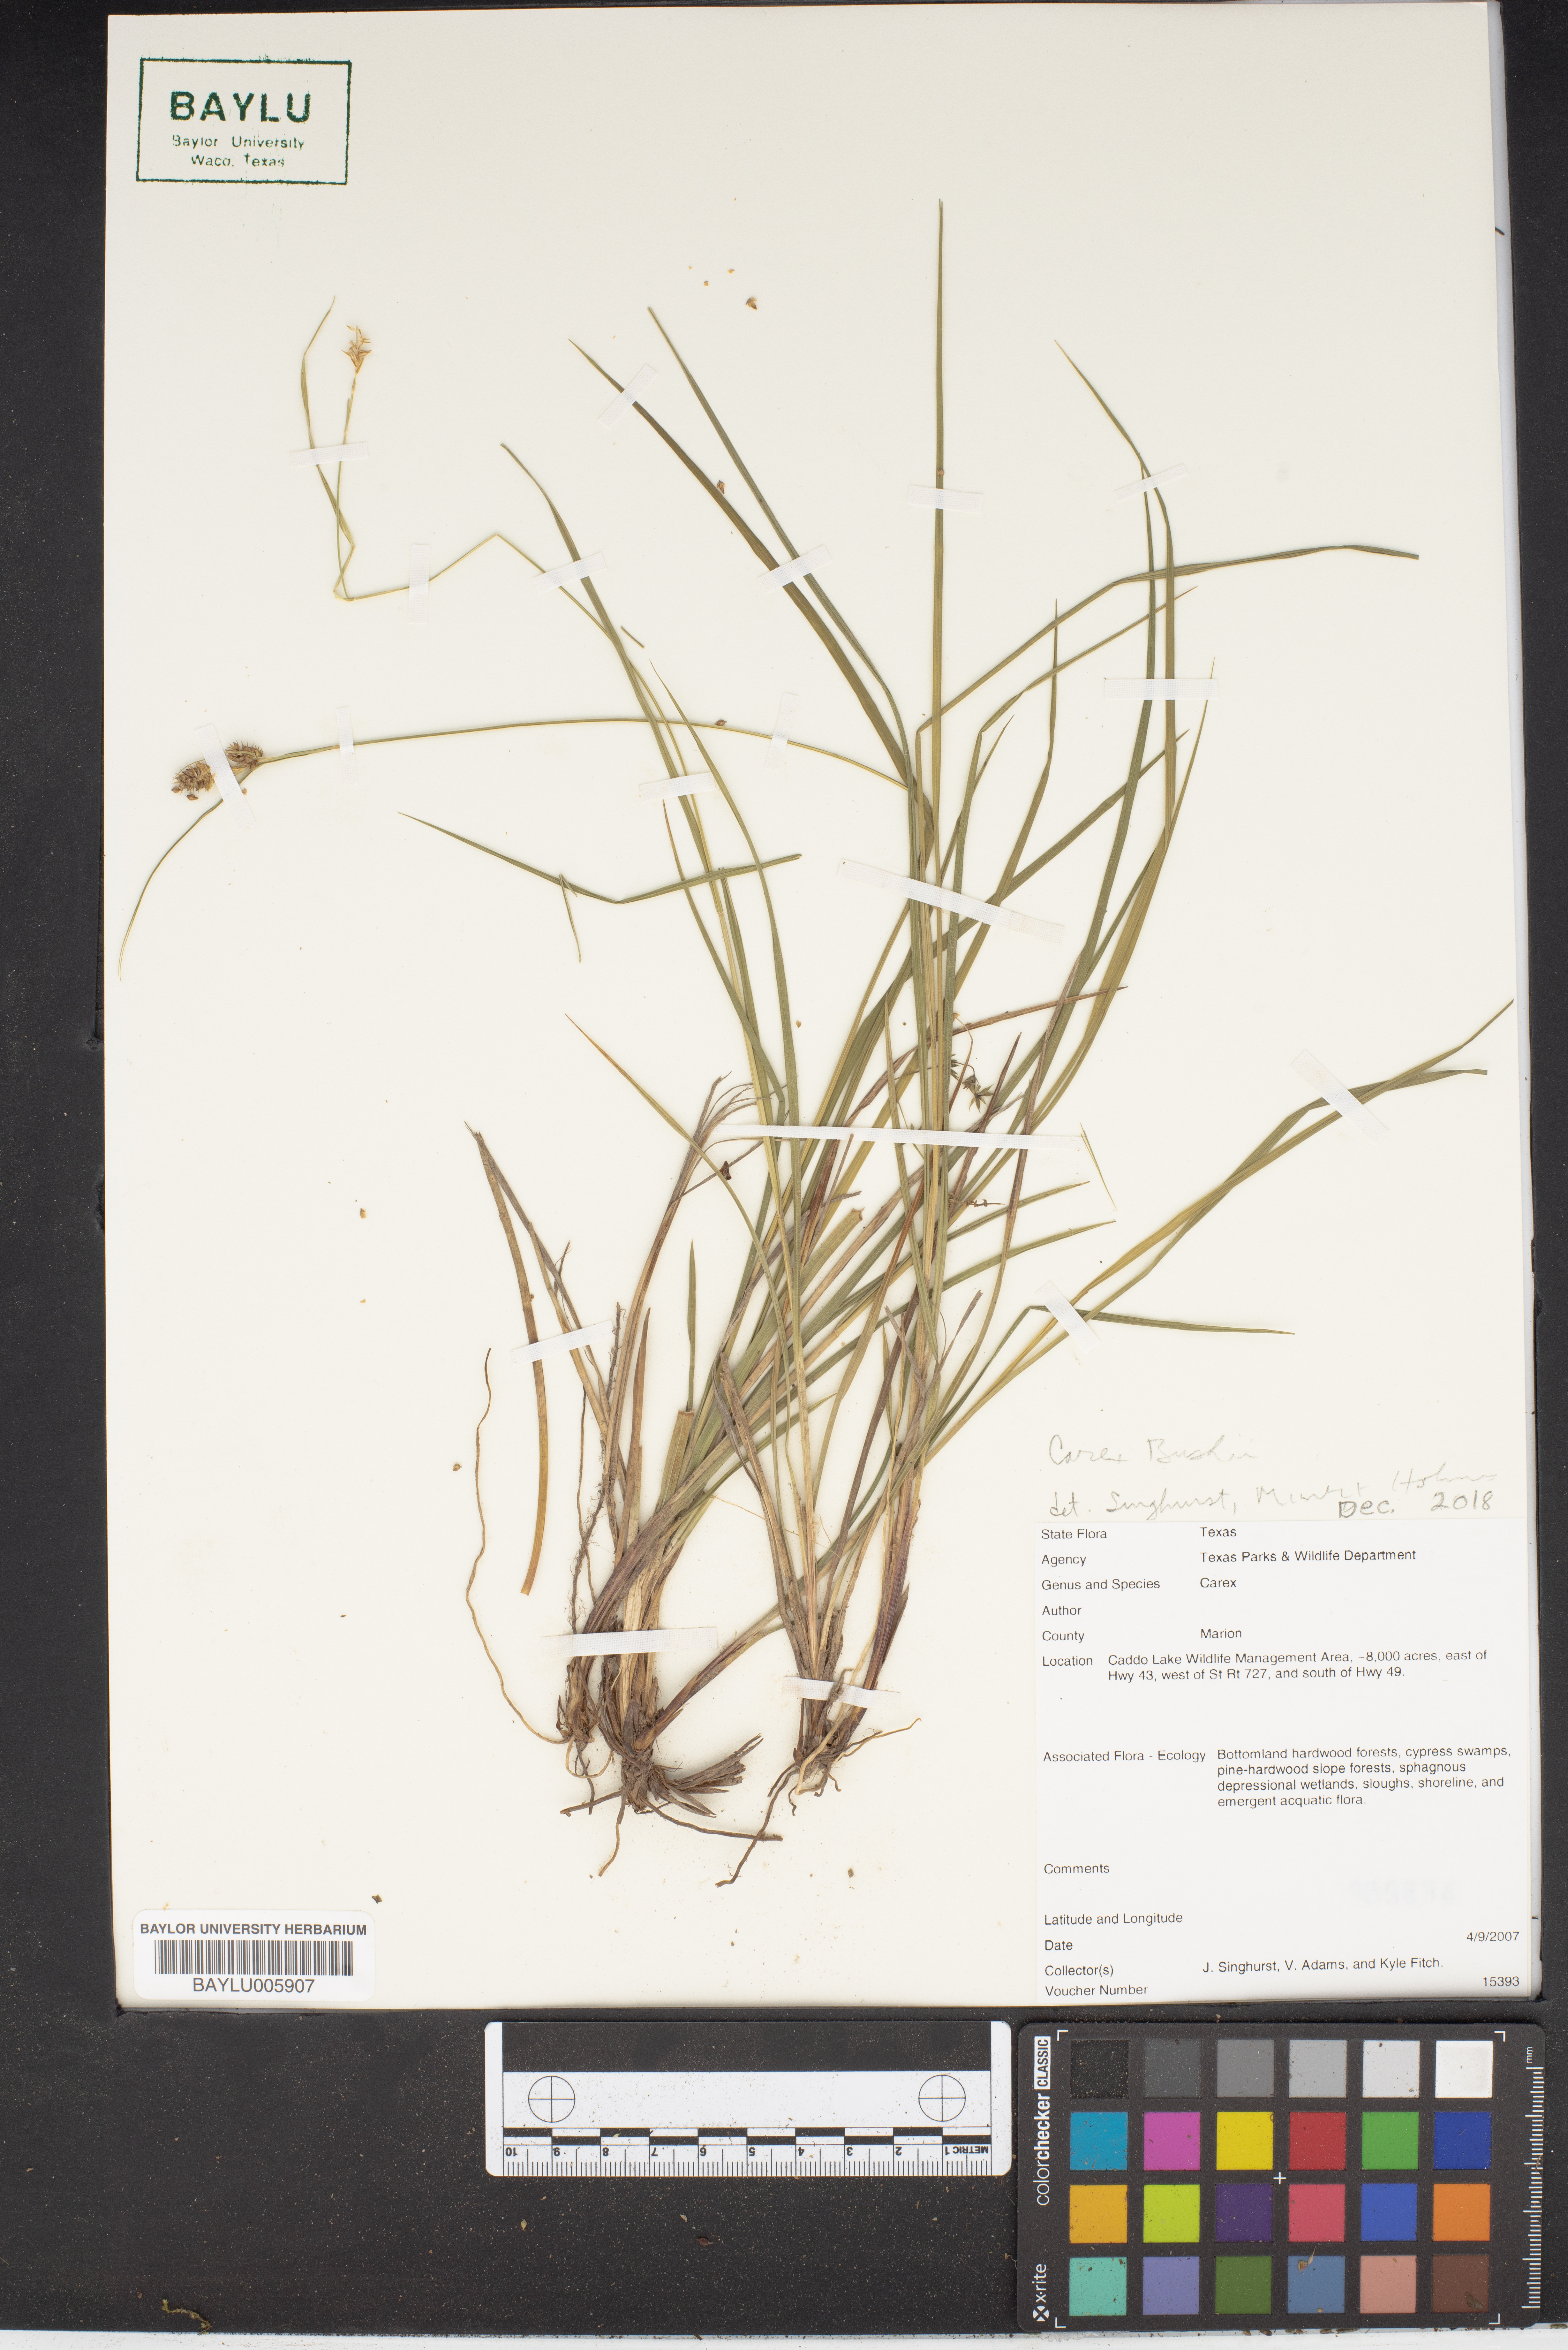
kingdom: Plantae
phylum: Tracheophyta
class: Liliopsida
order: Poales
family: Cyperaceae
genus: Carex
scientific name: Carex
